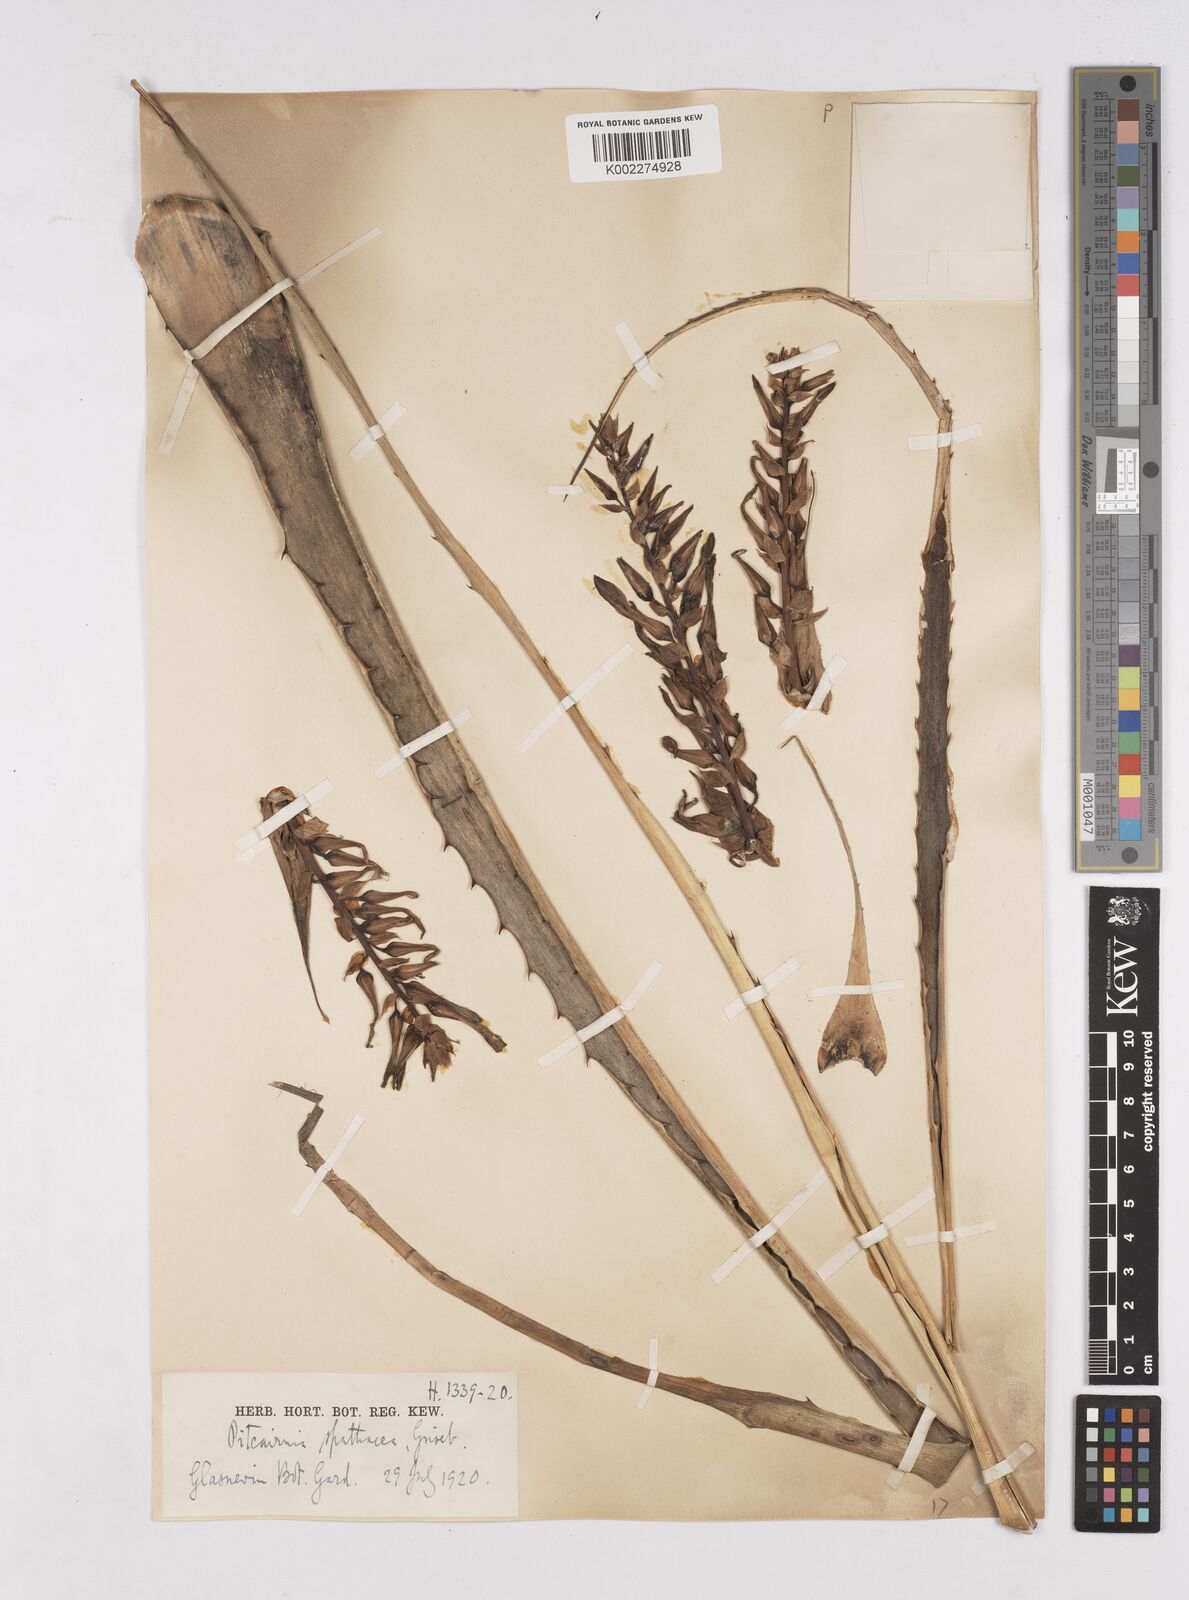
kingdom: Plantae
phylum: Tracheophyta
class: Liliopsida
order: Poales
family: Bromeliaceae
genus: Puya
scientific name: Puya spathacea
